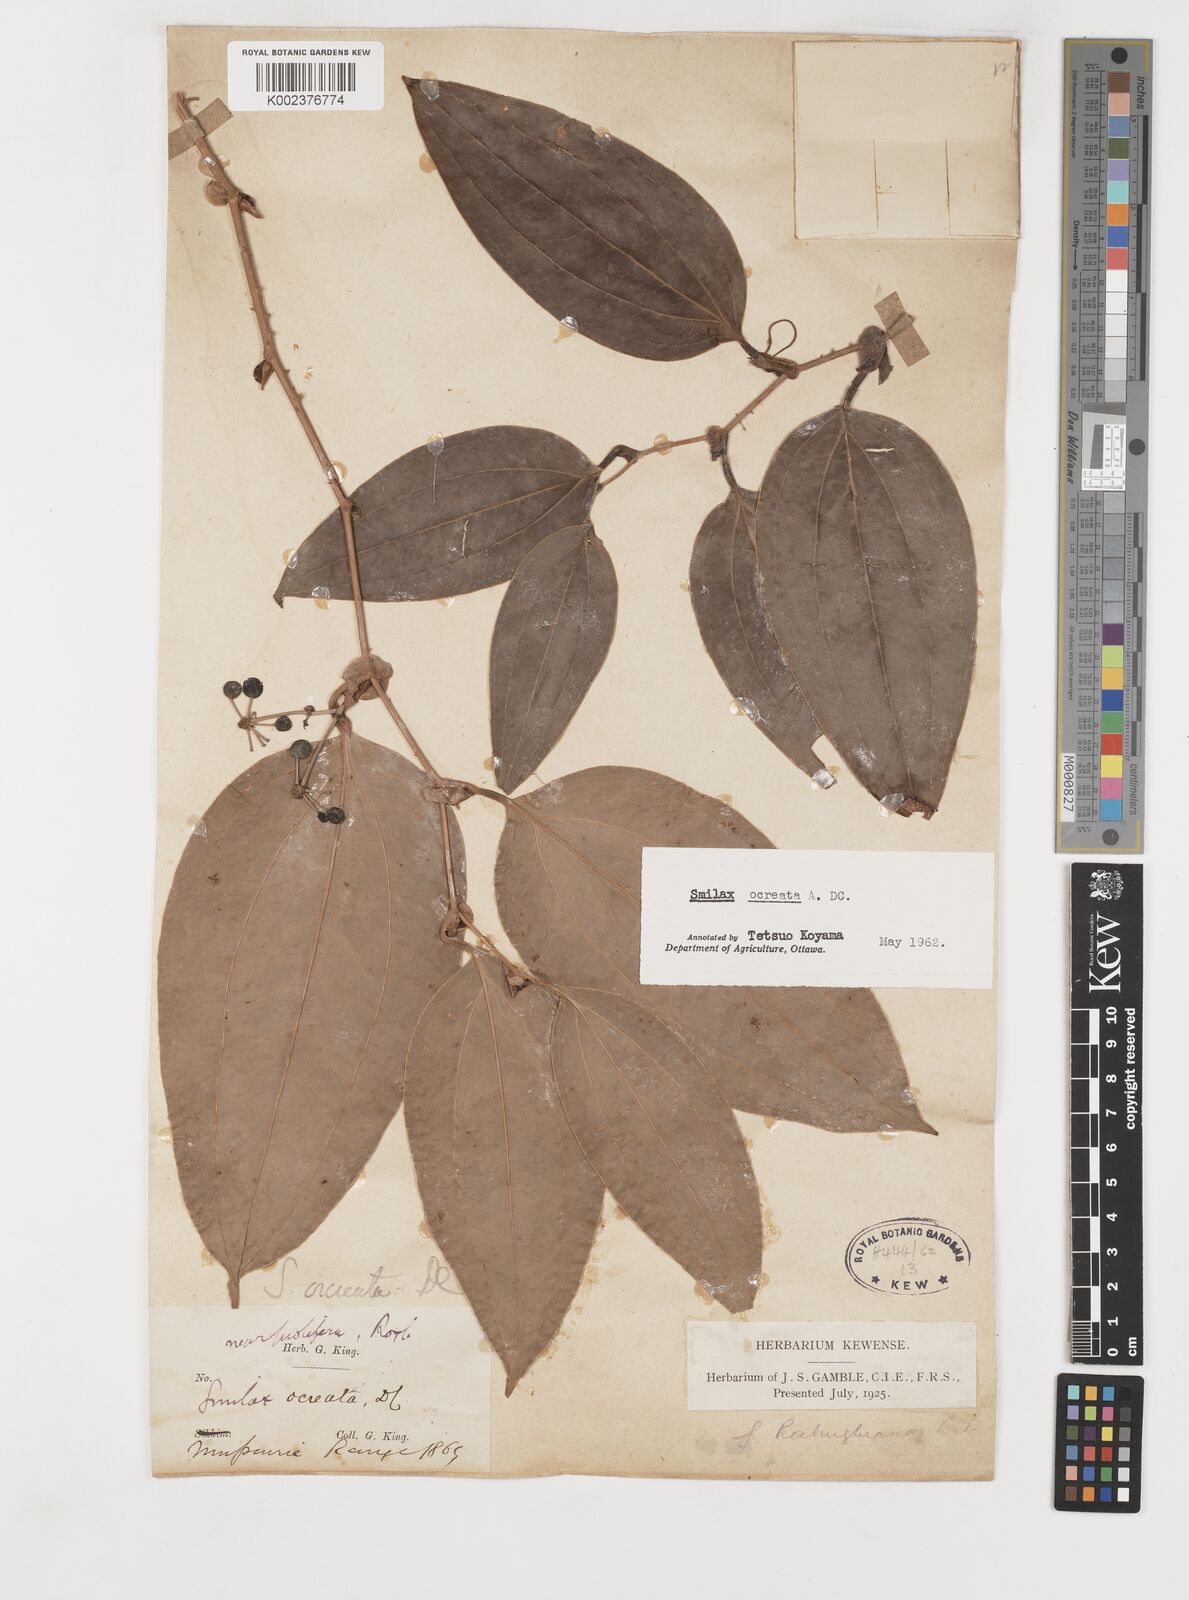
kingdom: Plantae
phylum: Tracheophyta
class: Liliopsida
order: Liliales
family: Smilacaceae
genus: Smilax
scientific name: Smilax ocreata
